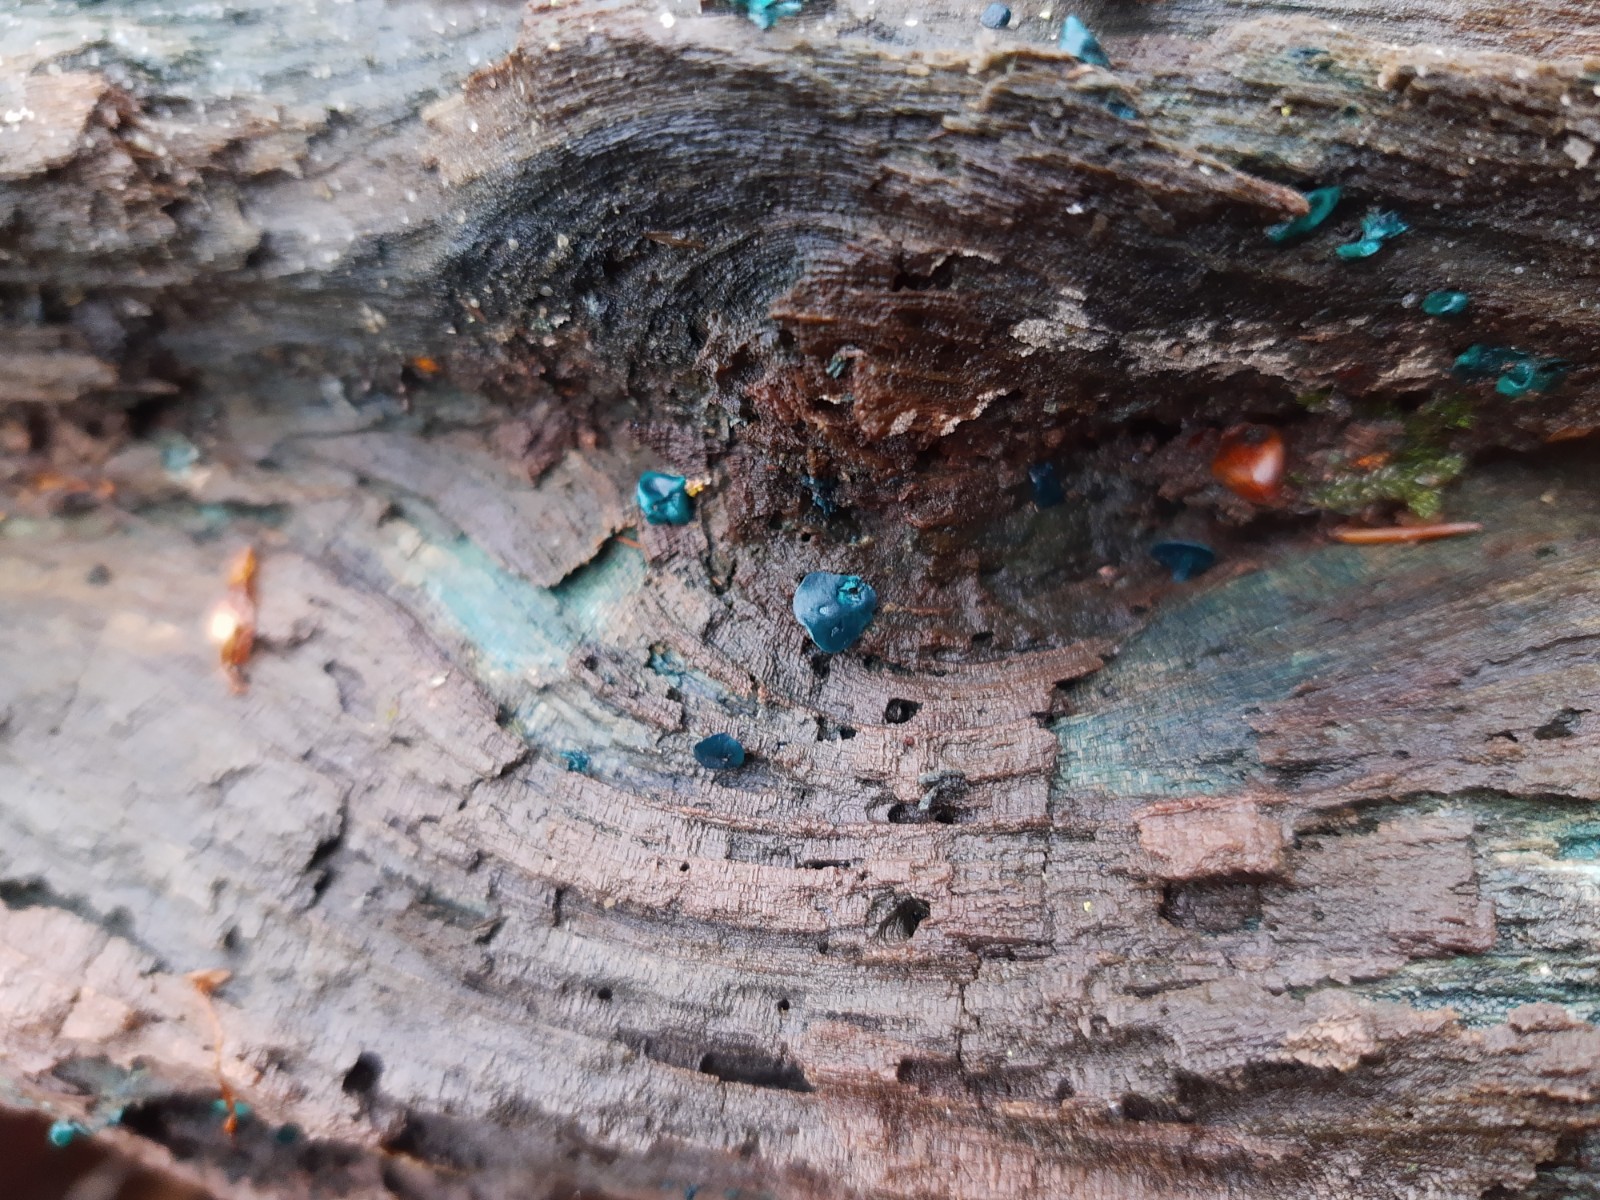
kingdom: Fungi
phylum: Ascomycota
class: Leotiomycetes
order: Helotiales
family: Chlorociboriaceae
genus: Chlorociboria
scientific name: Chlorociboria aeruginascens
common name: almindelig grønskive
